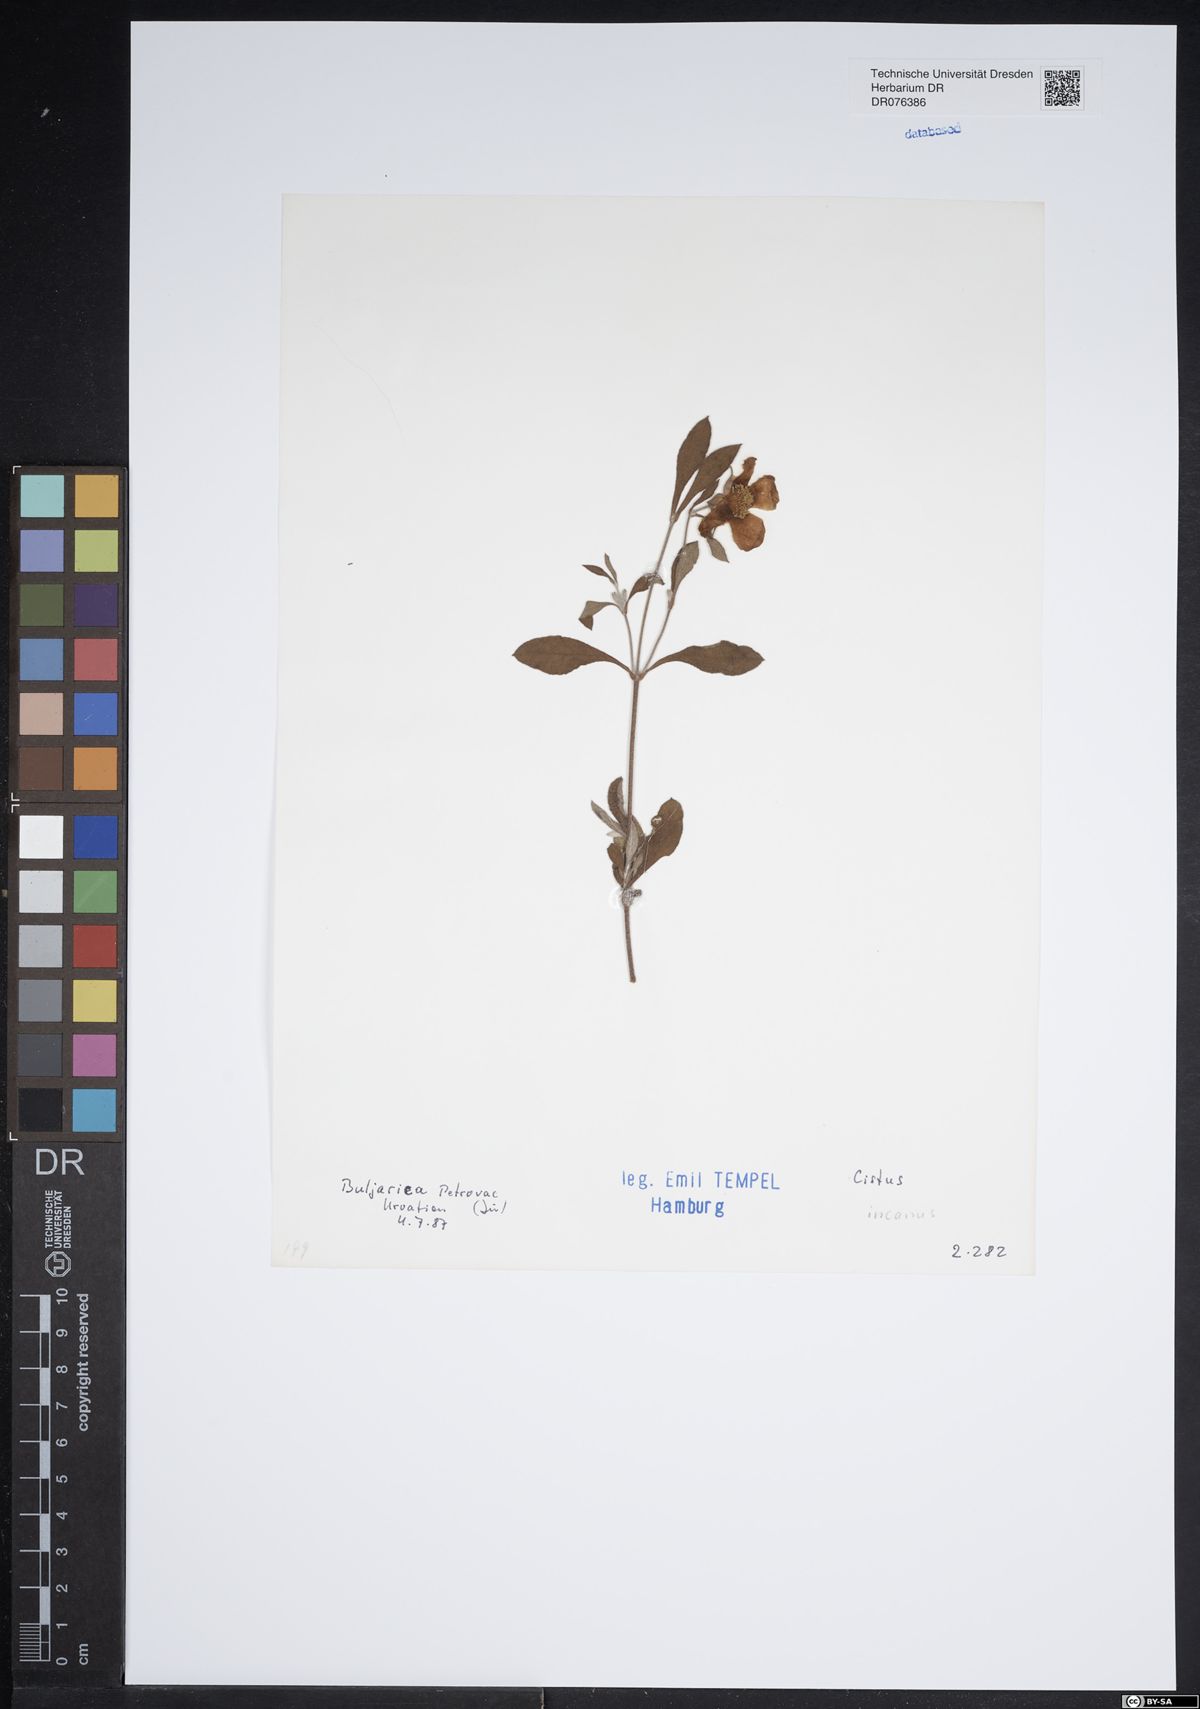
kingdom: Plantae
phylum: Tracheophyta
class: Magnoliopsida
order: Malvales
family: Cistaceae
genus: Cistus
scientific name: Cistus incanus
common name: Hairy rockrose
